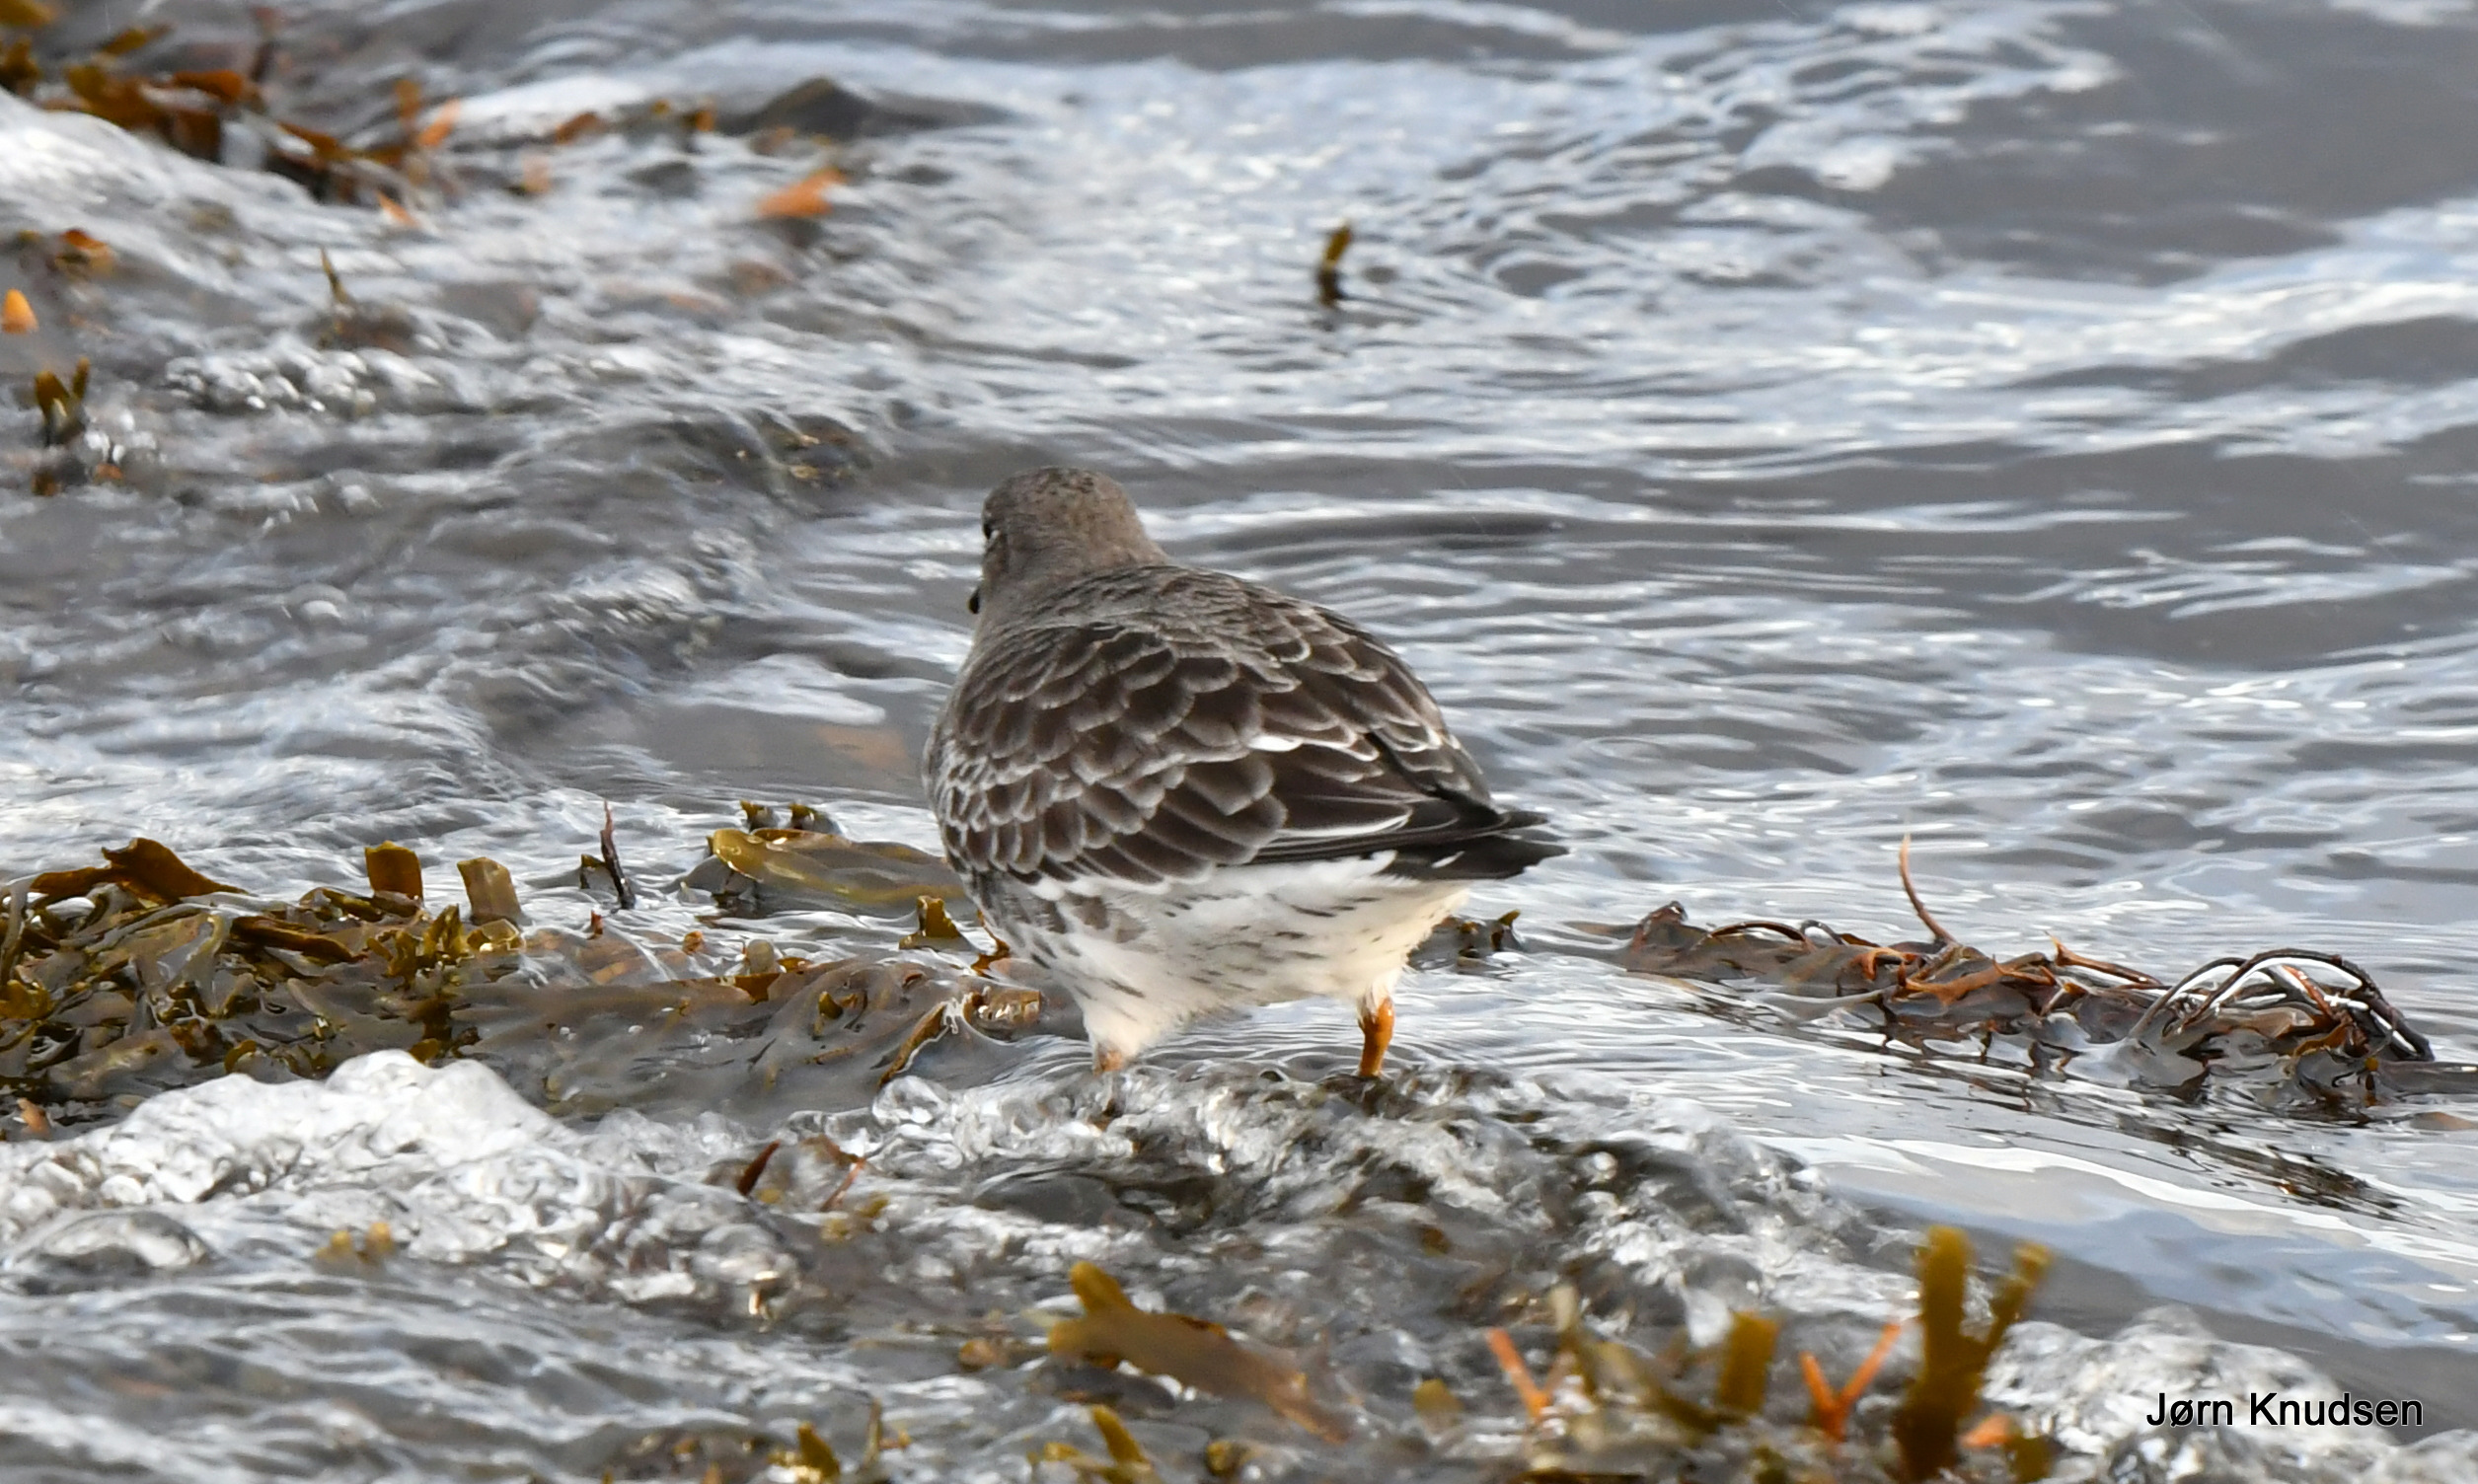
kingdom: Animalia
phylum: Chordata
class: Aves
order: Charadriiformes
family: Scolopacidae
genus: Calidris
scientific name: Calidris maritima
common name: Sortgrå ryle
